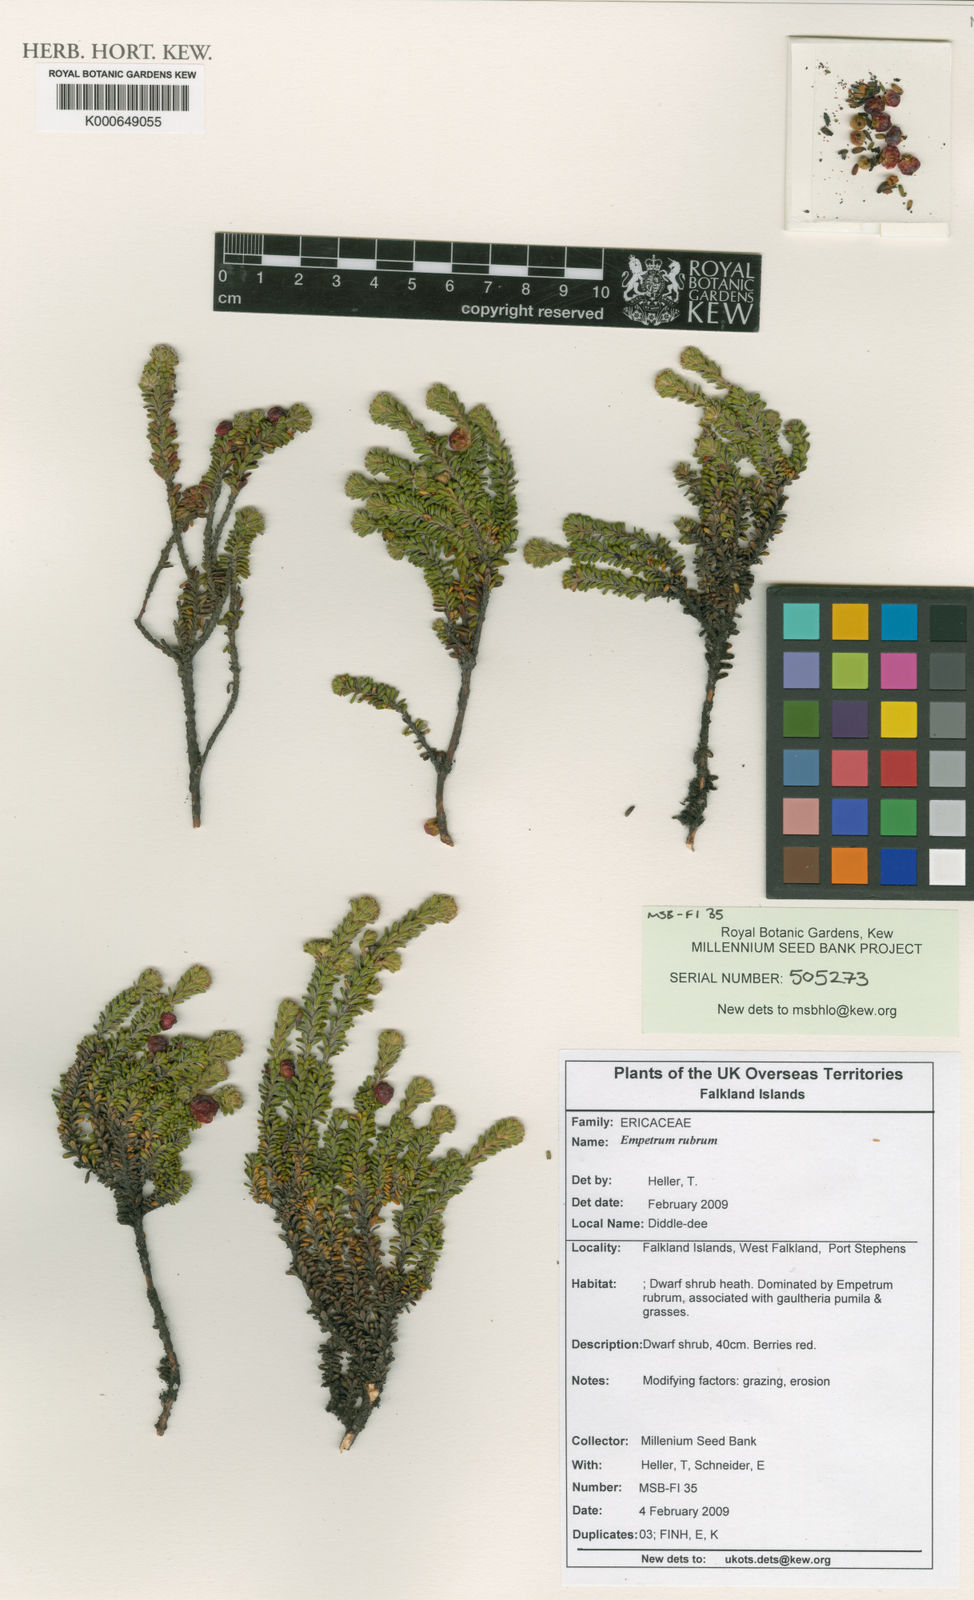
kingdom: Plantae
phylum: Tracheophyta
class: Magnoliopsida
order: Ericales
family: Ericaceae
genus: Empetrum
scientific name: Empetrum rubrum
